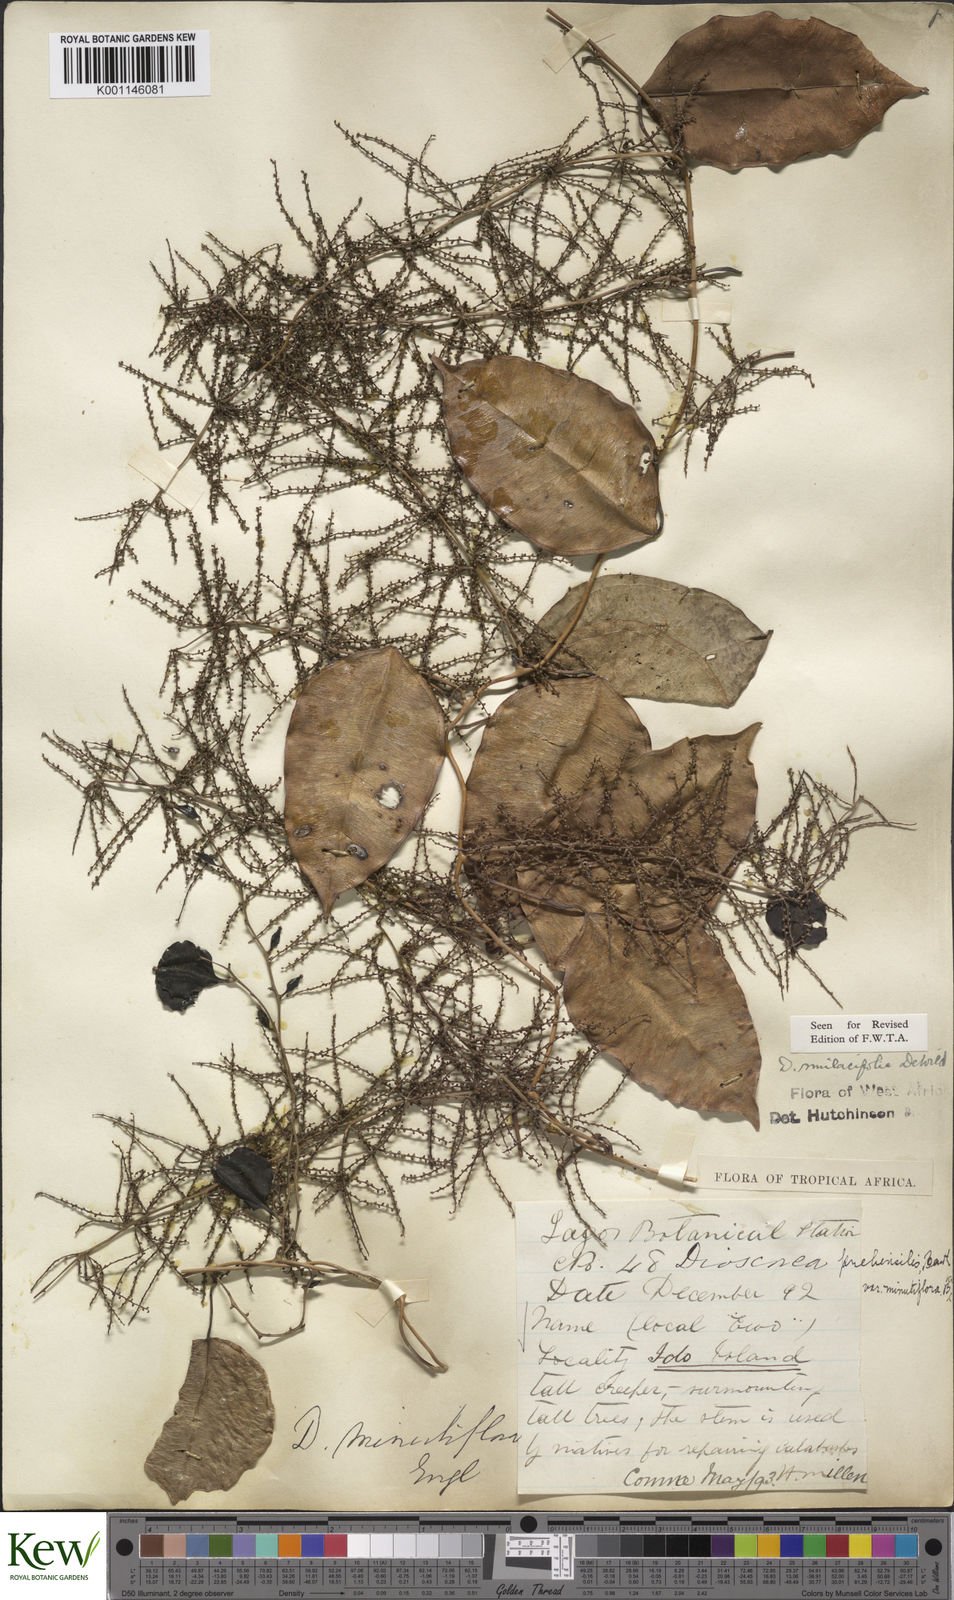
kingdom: Plantae
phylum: Tracheophyta
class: Liliopsida
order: Dioscoreales
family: Dioscoreaceae
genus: Dioscorea
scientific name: Dioscorea smilacifolia
